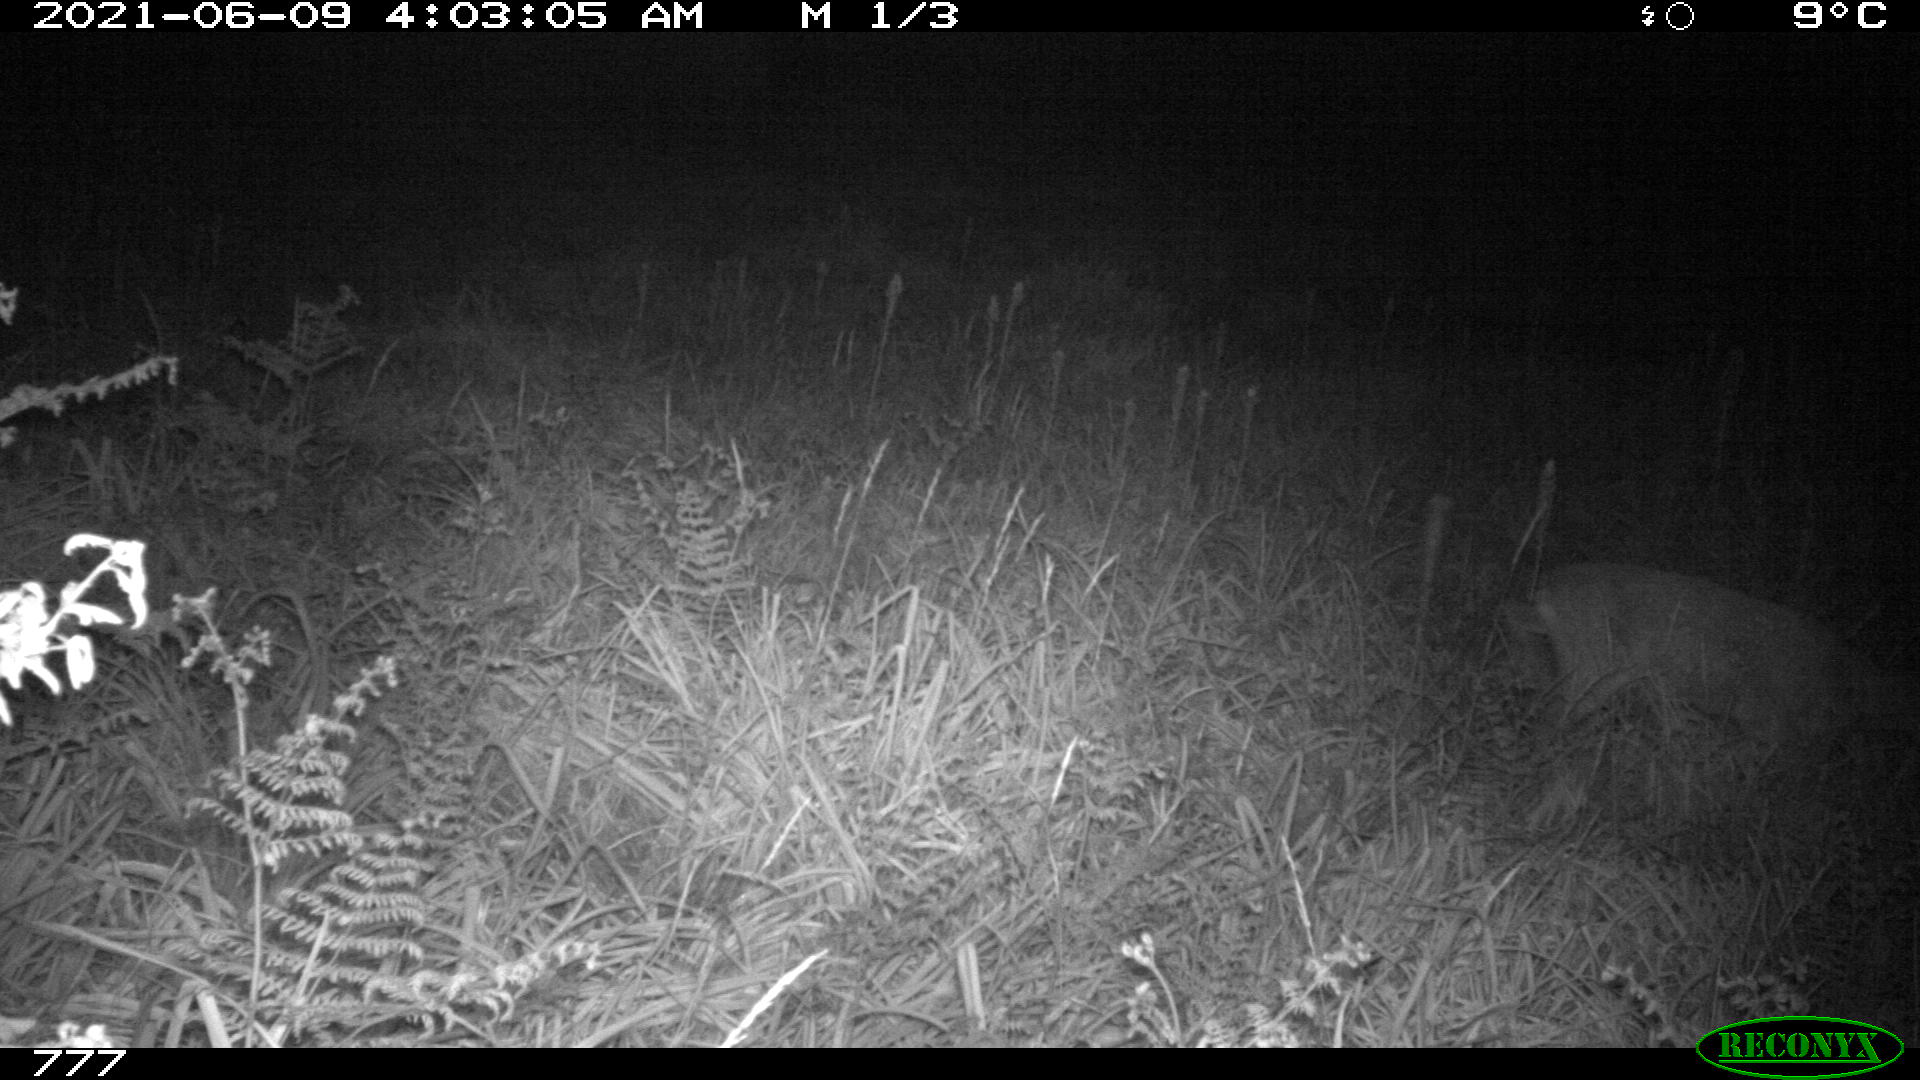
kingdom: Animalia
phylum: Chordata
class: Mammalia
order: Artiodactyla
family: Cervidae
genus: Capreolus
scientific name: Capreolus capreolus
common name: Western roe deer
